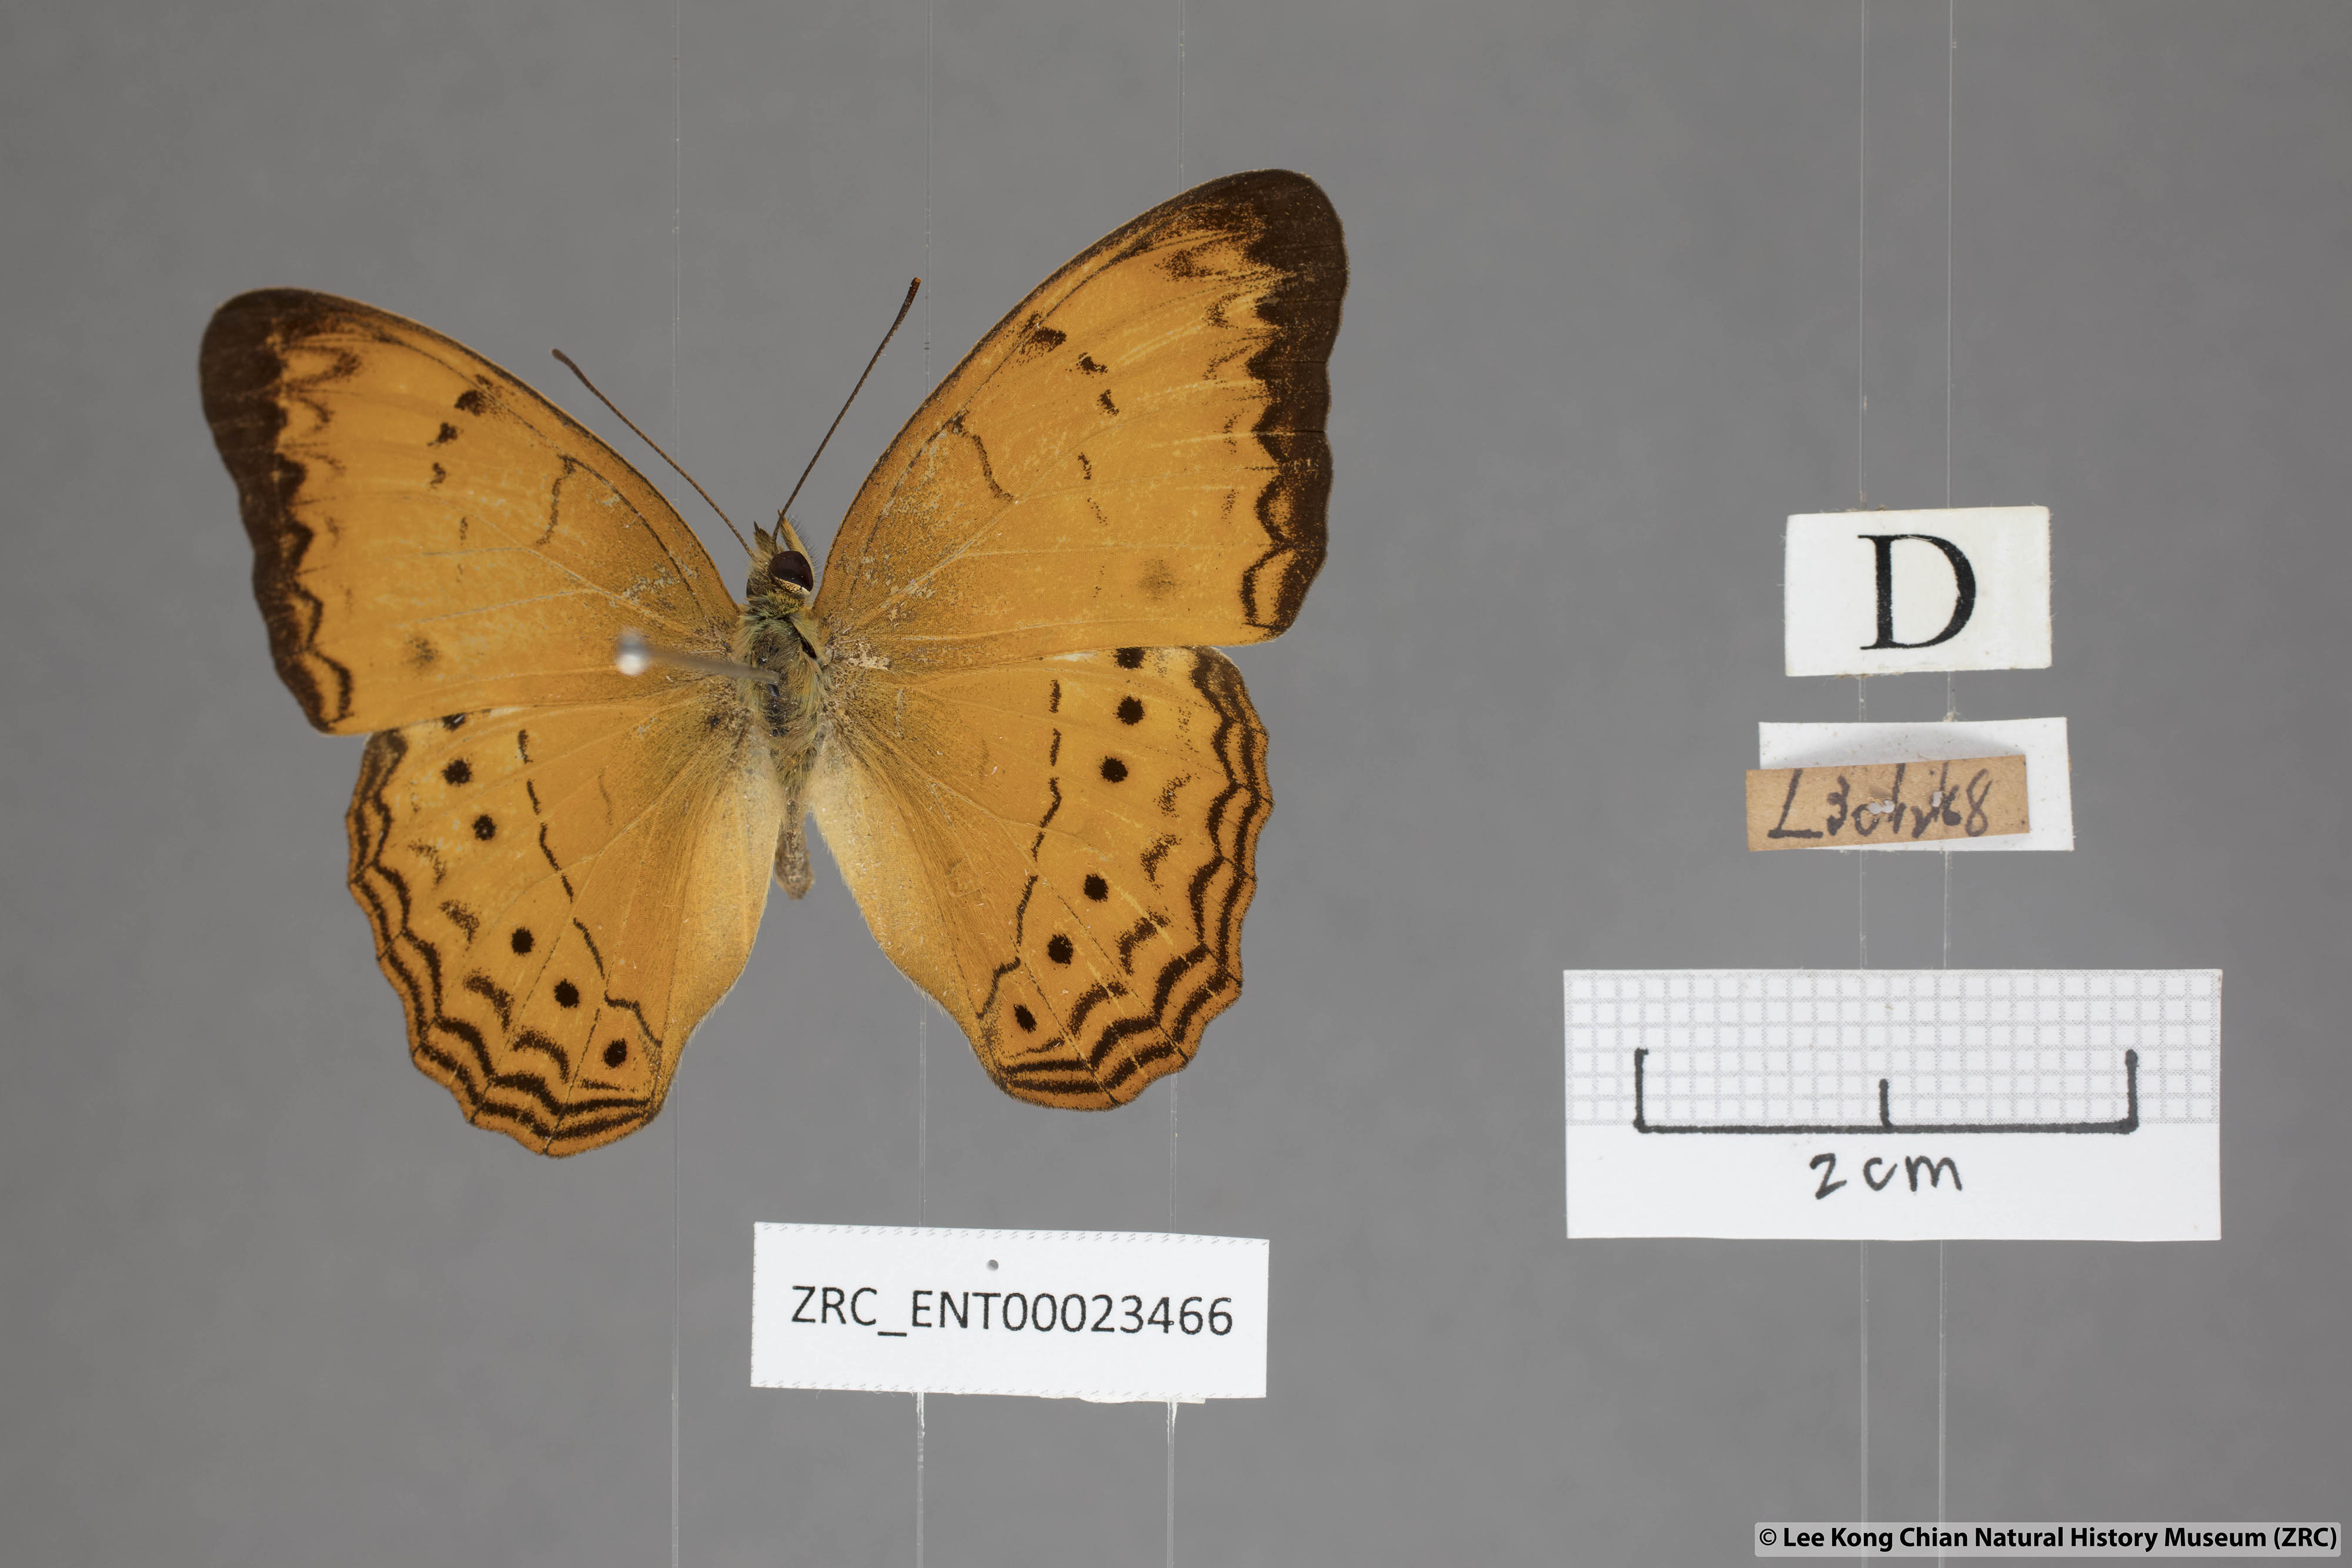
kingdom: Animalia
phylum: Arthropoda
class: Insecta
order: Lepidoptera
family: Nymphalidae
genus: Cirrochroa
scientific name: Cirrochroa surya
